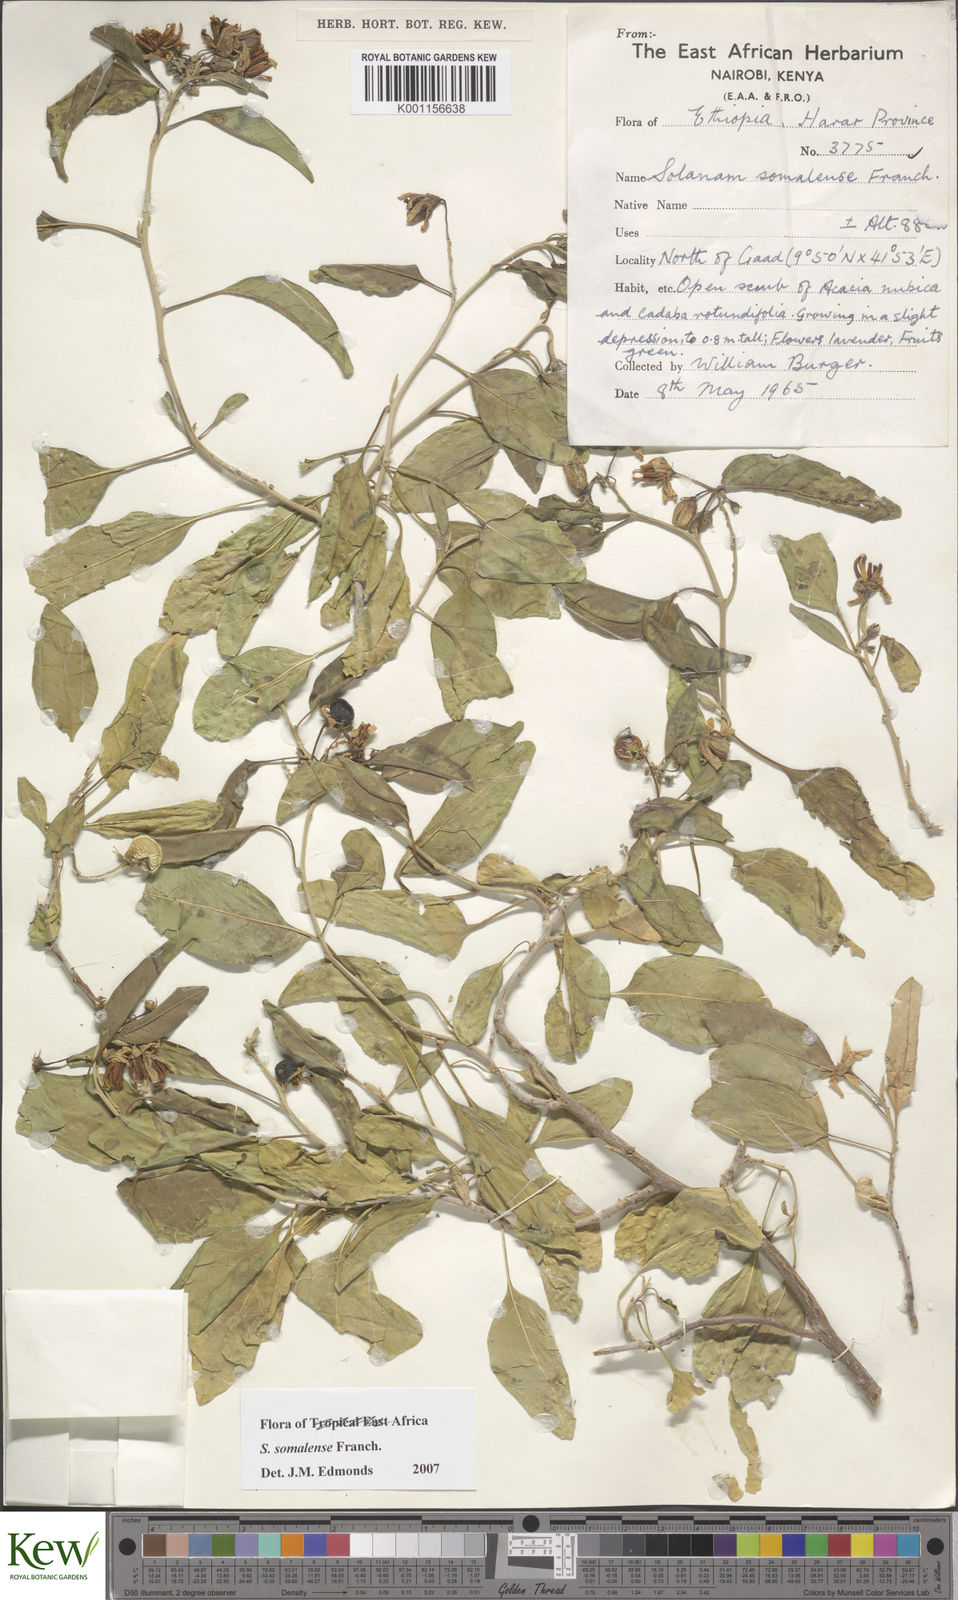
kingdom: Plantae
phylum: Tracheophyta
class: Magnoliopsida
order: Solanales
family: Solanaceae
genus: Solanum
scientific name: Solanum somalense
